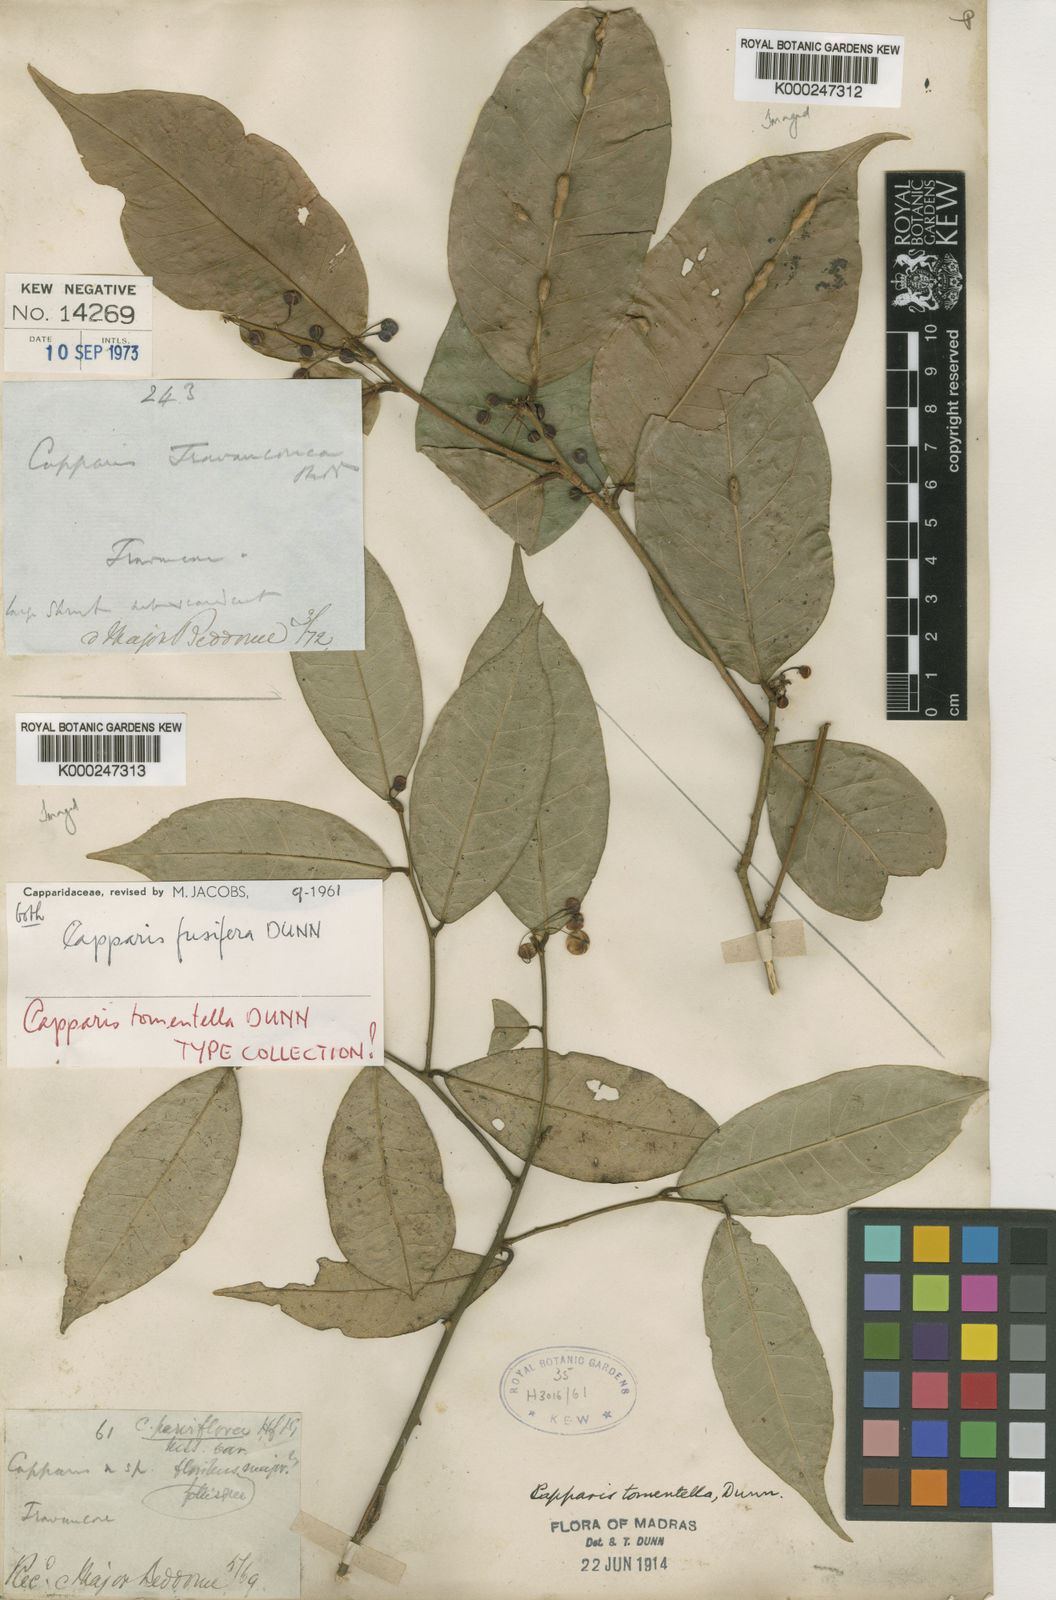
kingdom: Plantae
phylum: Tracheophyta
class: Magnoliopsida
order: Brassicales
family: Capparaceae
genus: Capparis
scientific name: Capparis fusifera
